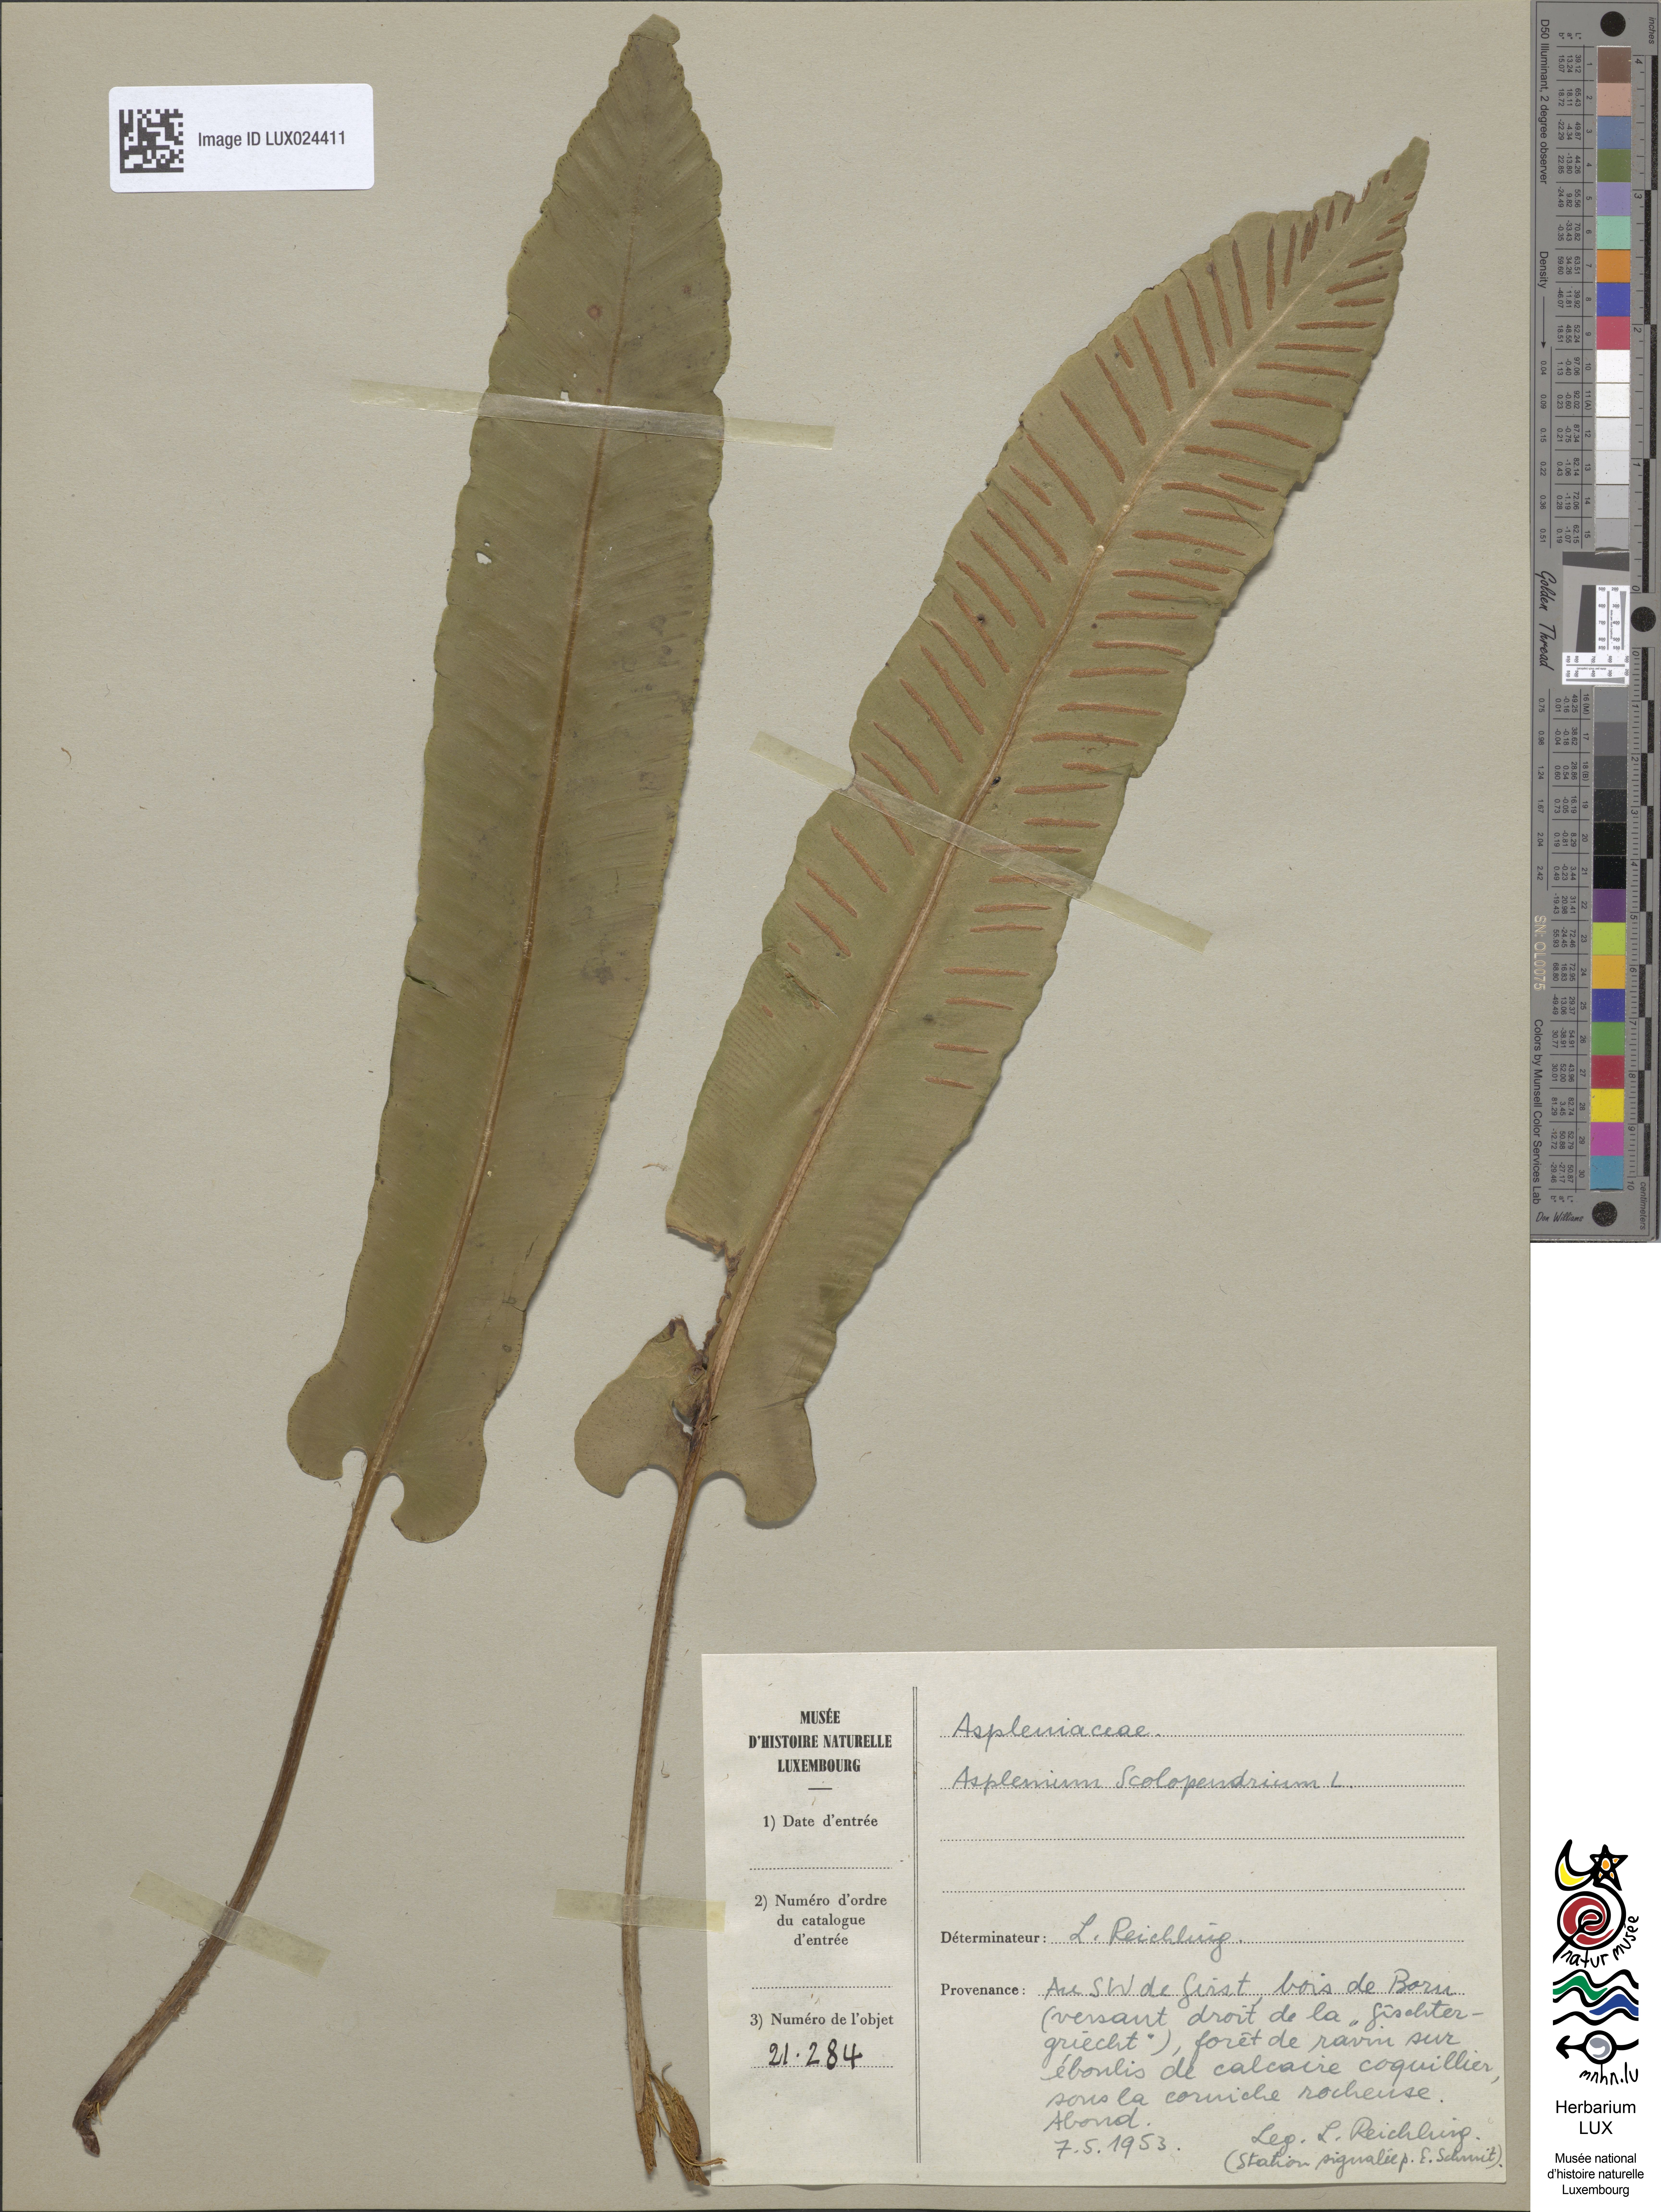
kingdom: Plantae
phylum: Tracheophyta
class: Polypodiopsida
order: Polypodiales
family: Aspleniaceae
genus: Asplenium
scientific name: Asplenium scolopendrium
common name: Hart's-tongue fern
